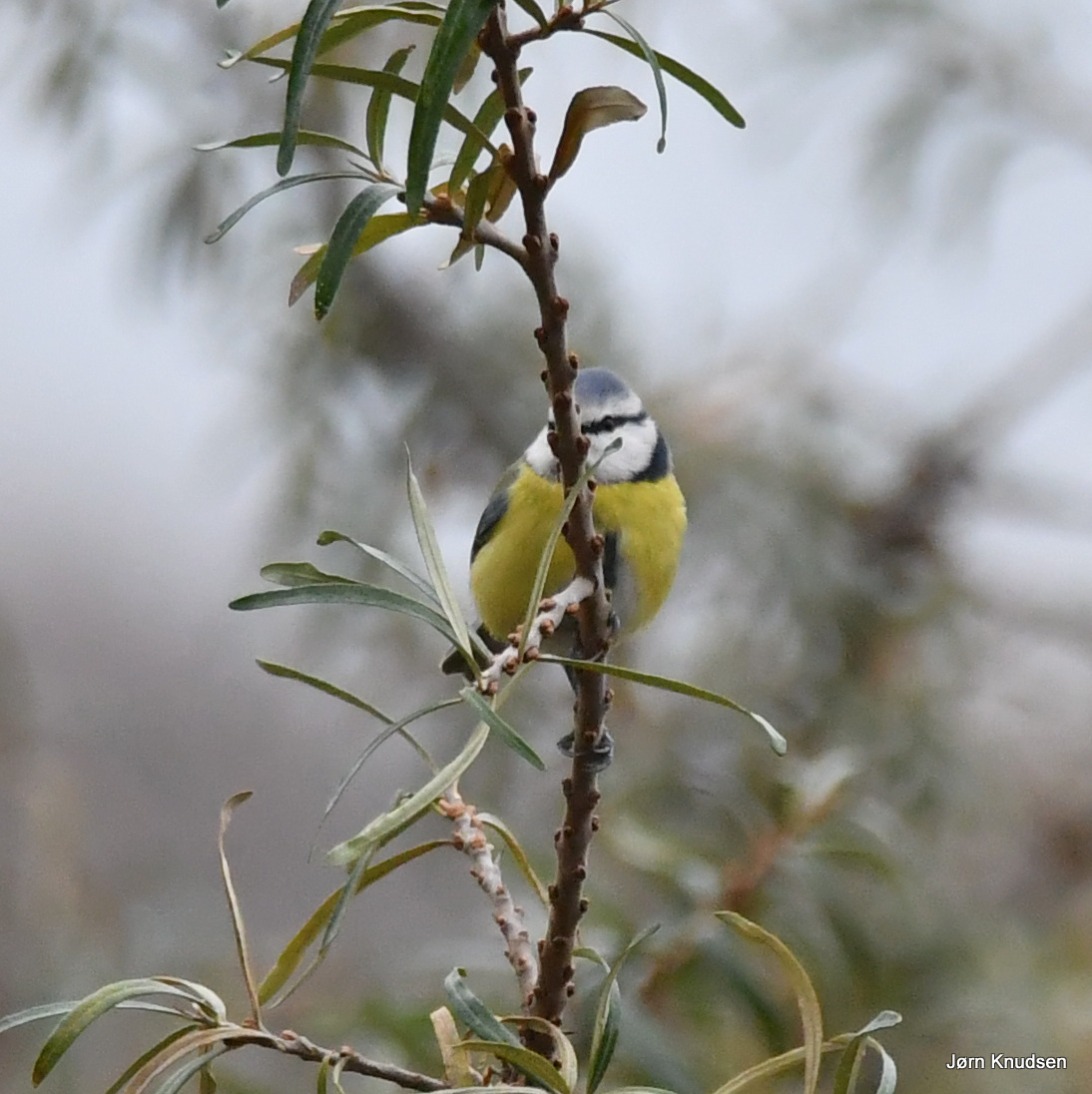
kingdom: Animalia
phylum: Chordata
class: Aves
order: Passeriformes
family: Paridae
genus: Cyanistes
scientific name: Cyanistes caeruleus
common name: Blåmejse
